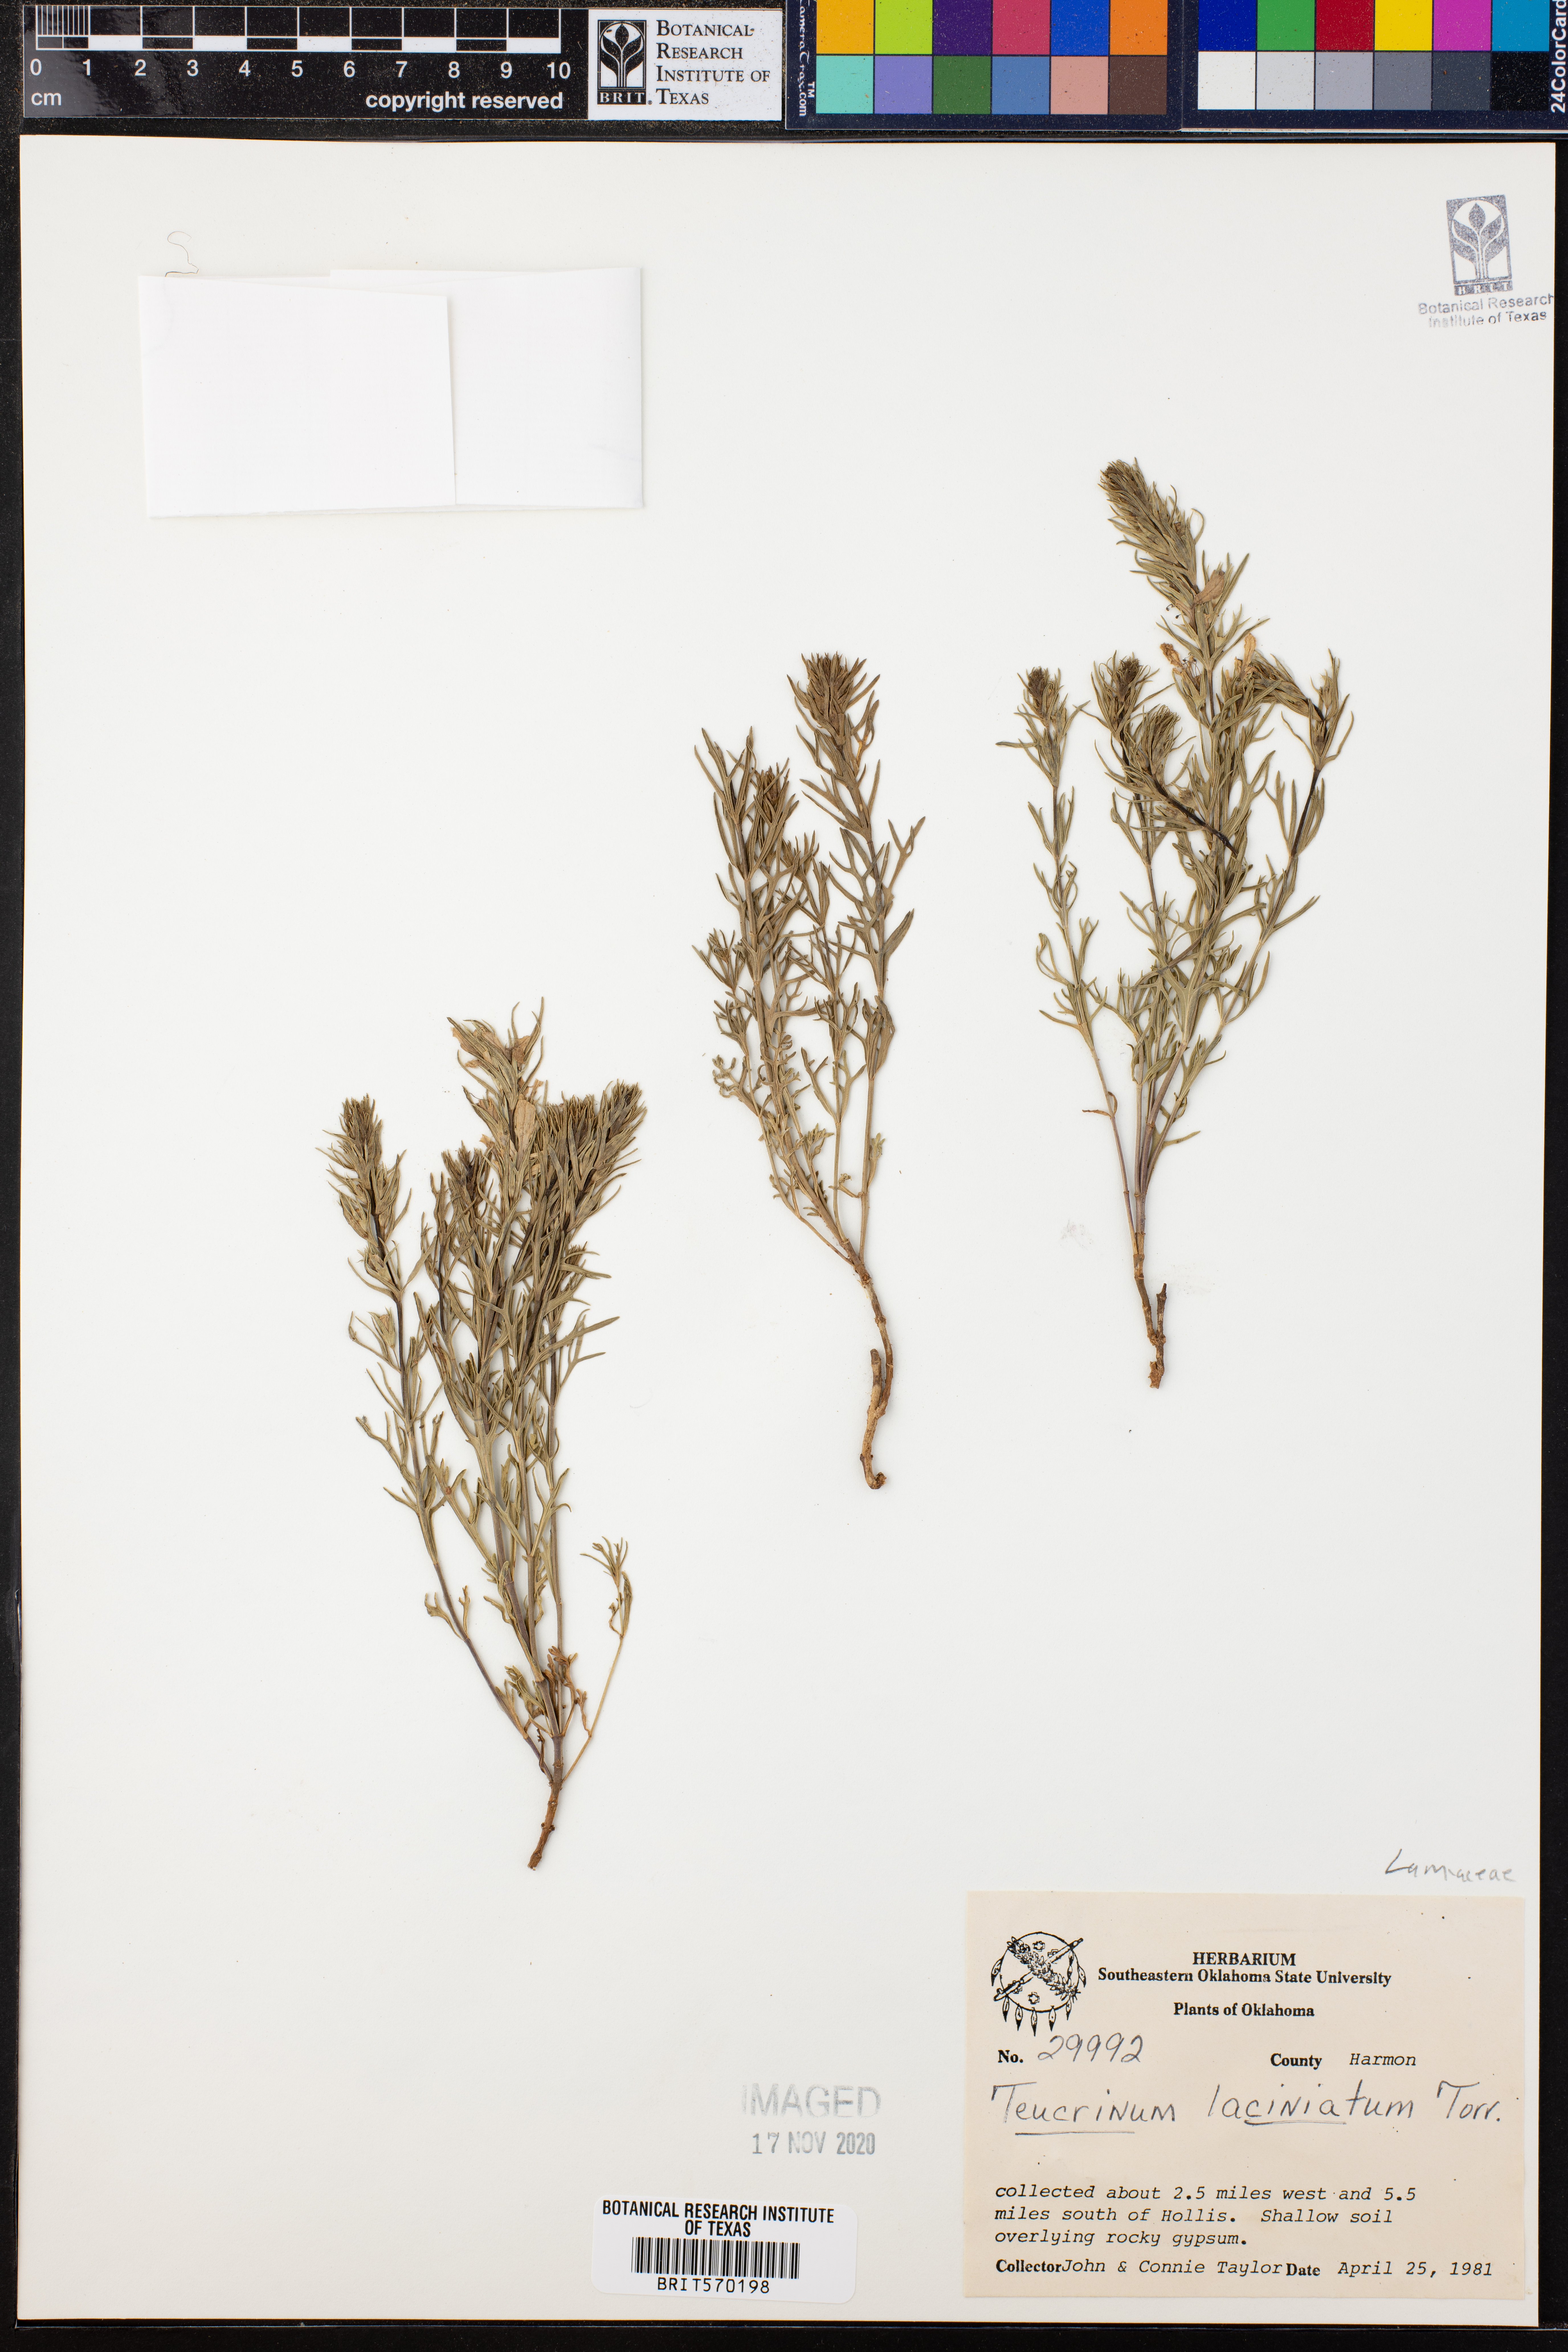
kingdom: Plantae
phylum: Tracheophyta
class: Magnoliopsida
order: Lamiales
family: Lamiaceae
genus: Teucrium
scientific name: Teucrium laciniatum
